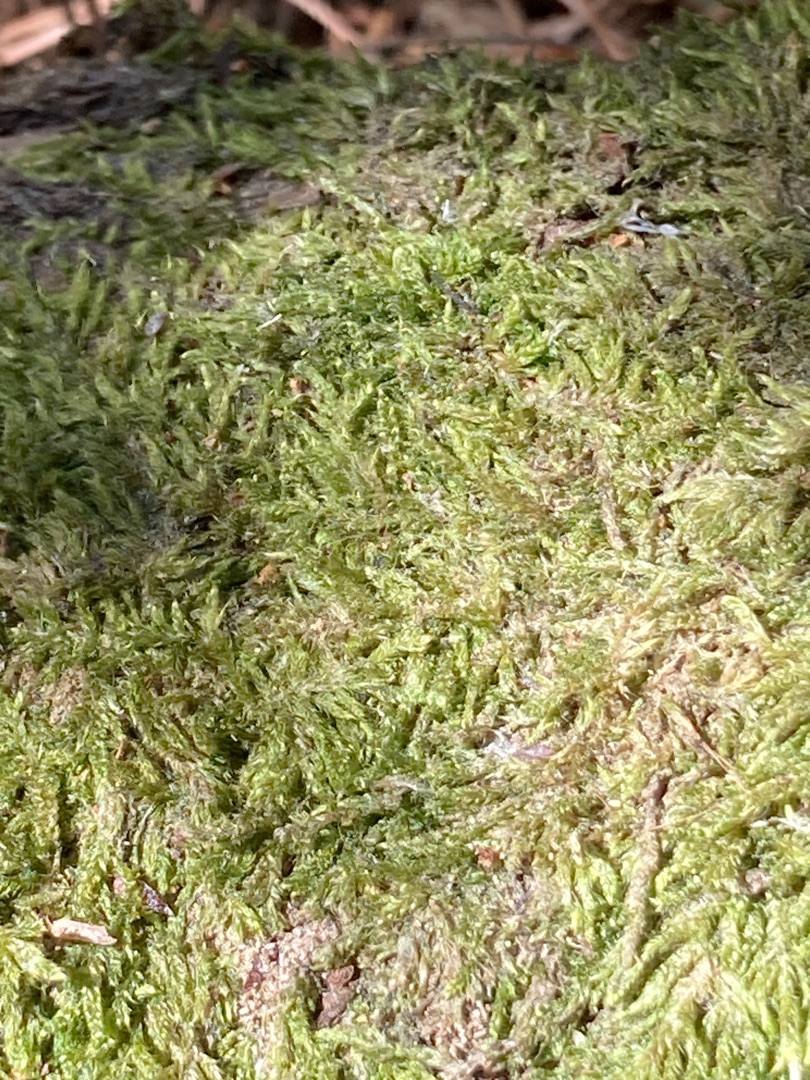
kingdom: Plantae
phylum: Bryophyta
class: Bryopsida
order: Hypnales
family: Hypnaceae
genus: Hypnum
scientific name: Hypnum
